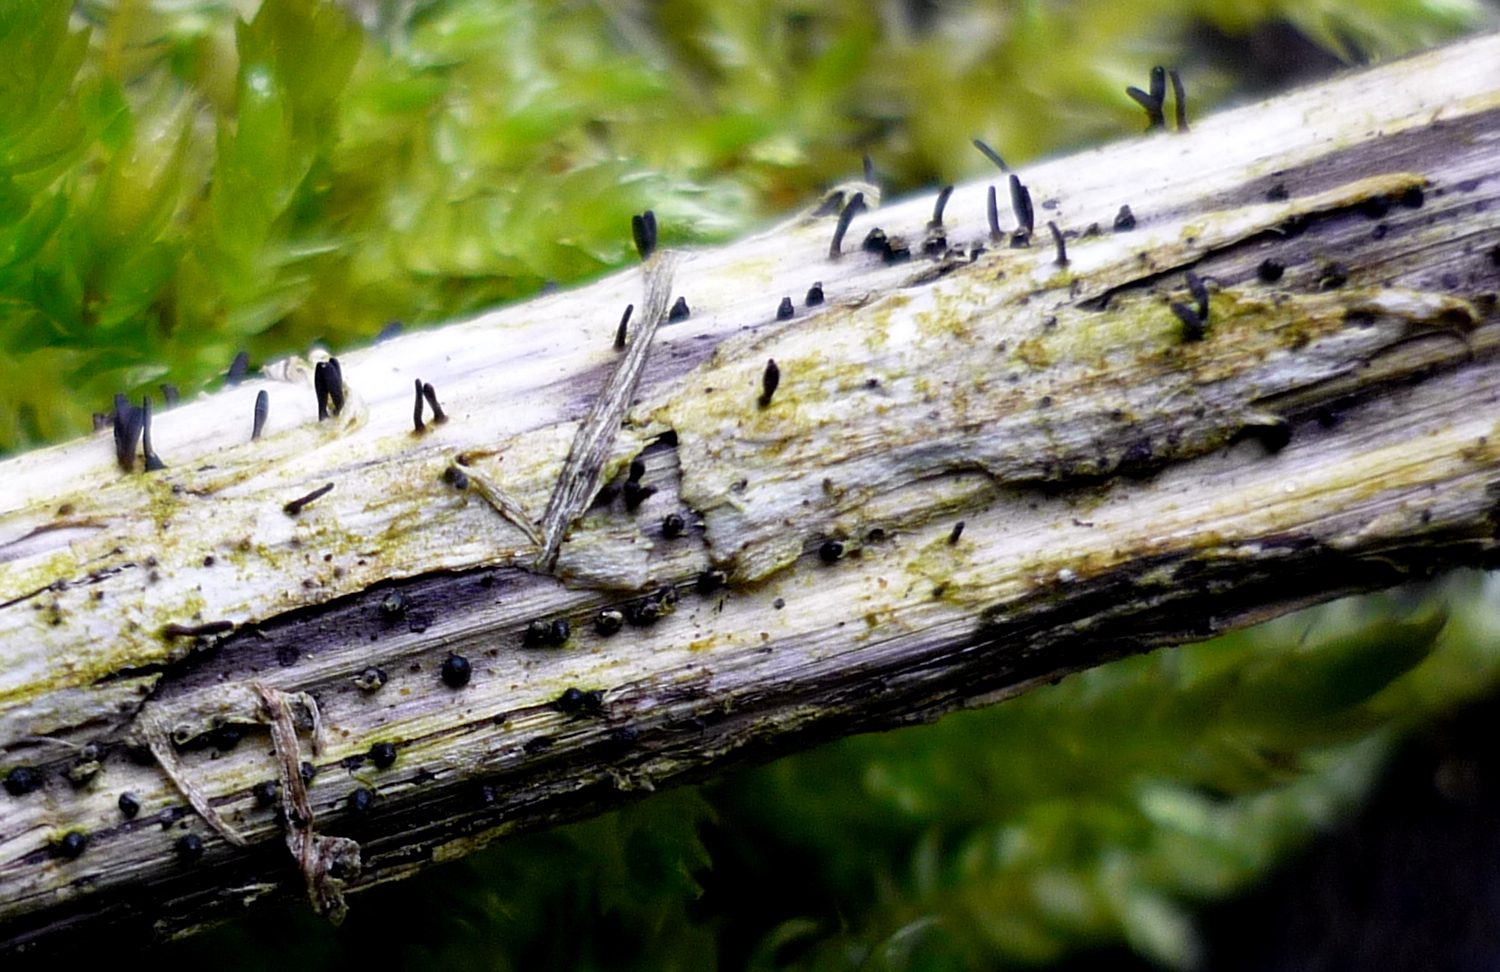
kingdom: Fungi
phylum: Ascomycota
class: Dothideomycetes
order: Acrospermales
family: Acrospermaceae
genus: Acrospermum
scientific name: Acrospermum compressum
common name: nælde-stængeltunge
